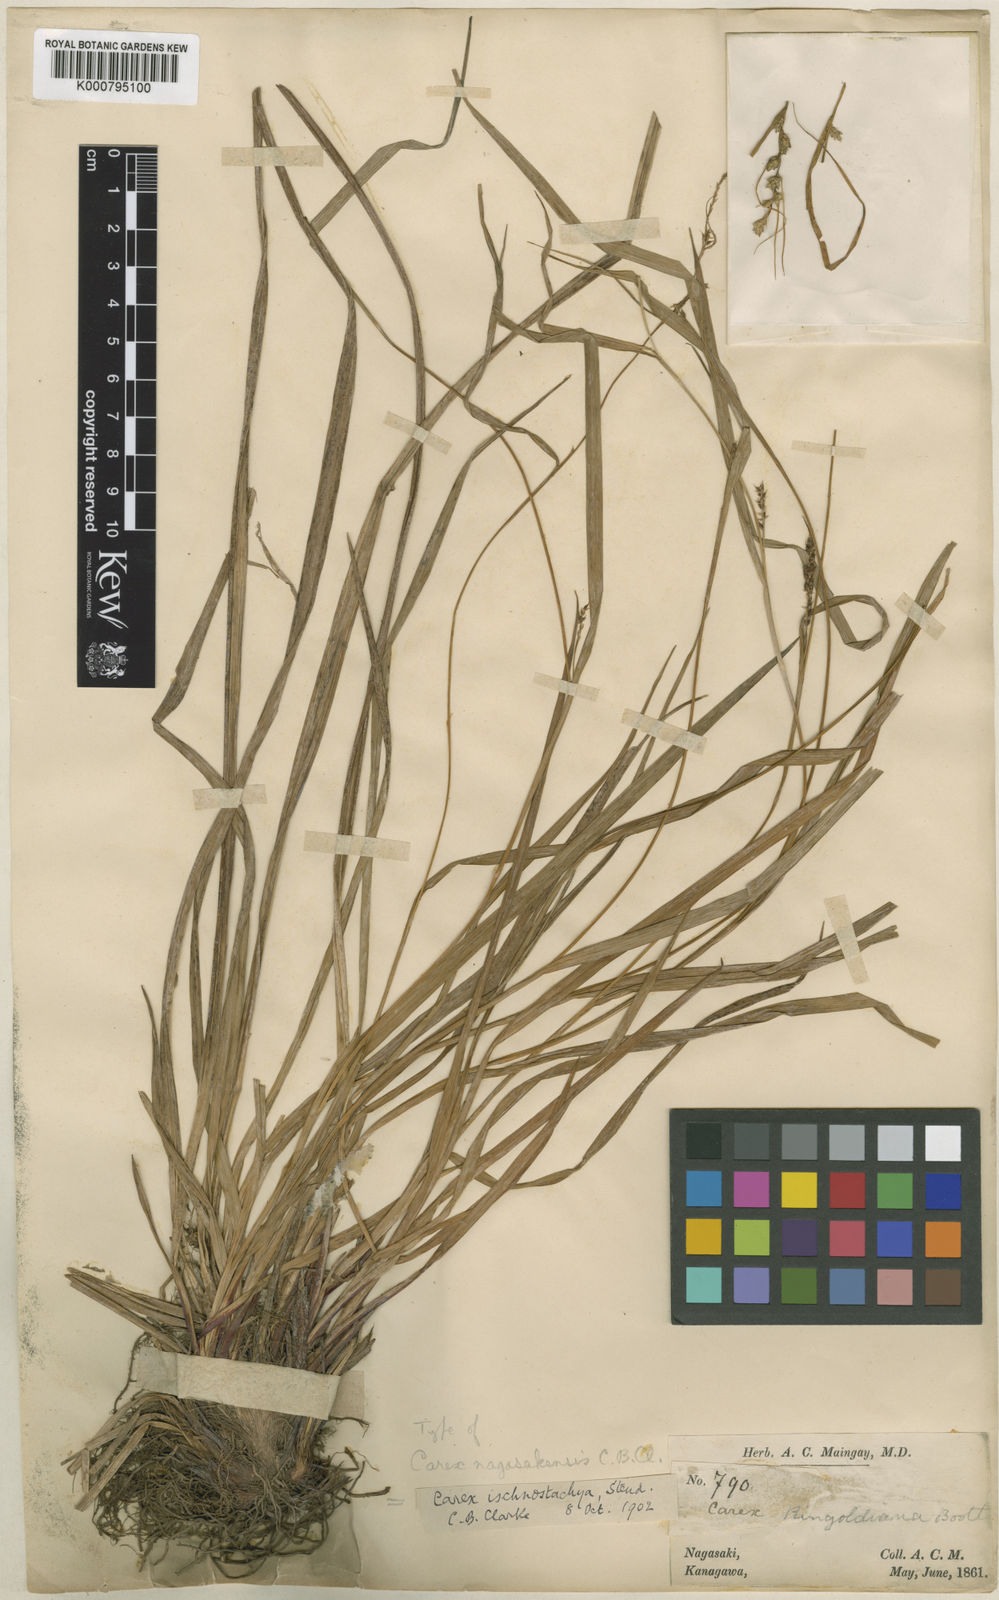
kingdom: Plantae
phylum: Tracheophyta
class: Liliopsida
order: Poales
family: Cyperaceae
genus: Carex
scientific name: Carex ischnostachya
